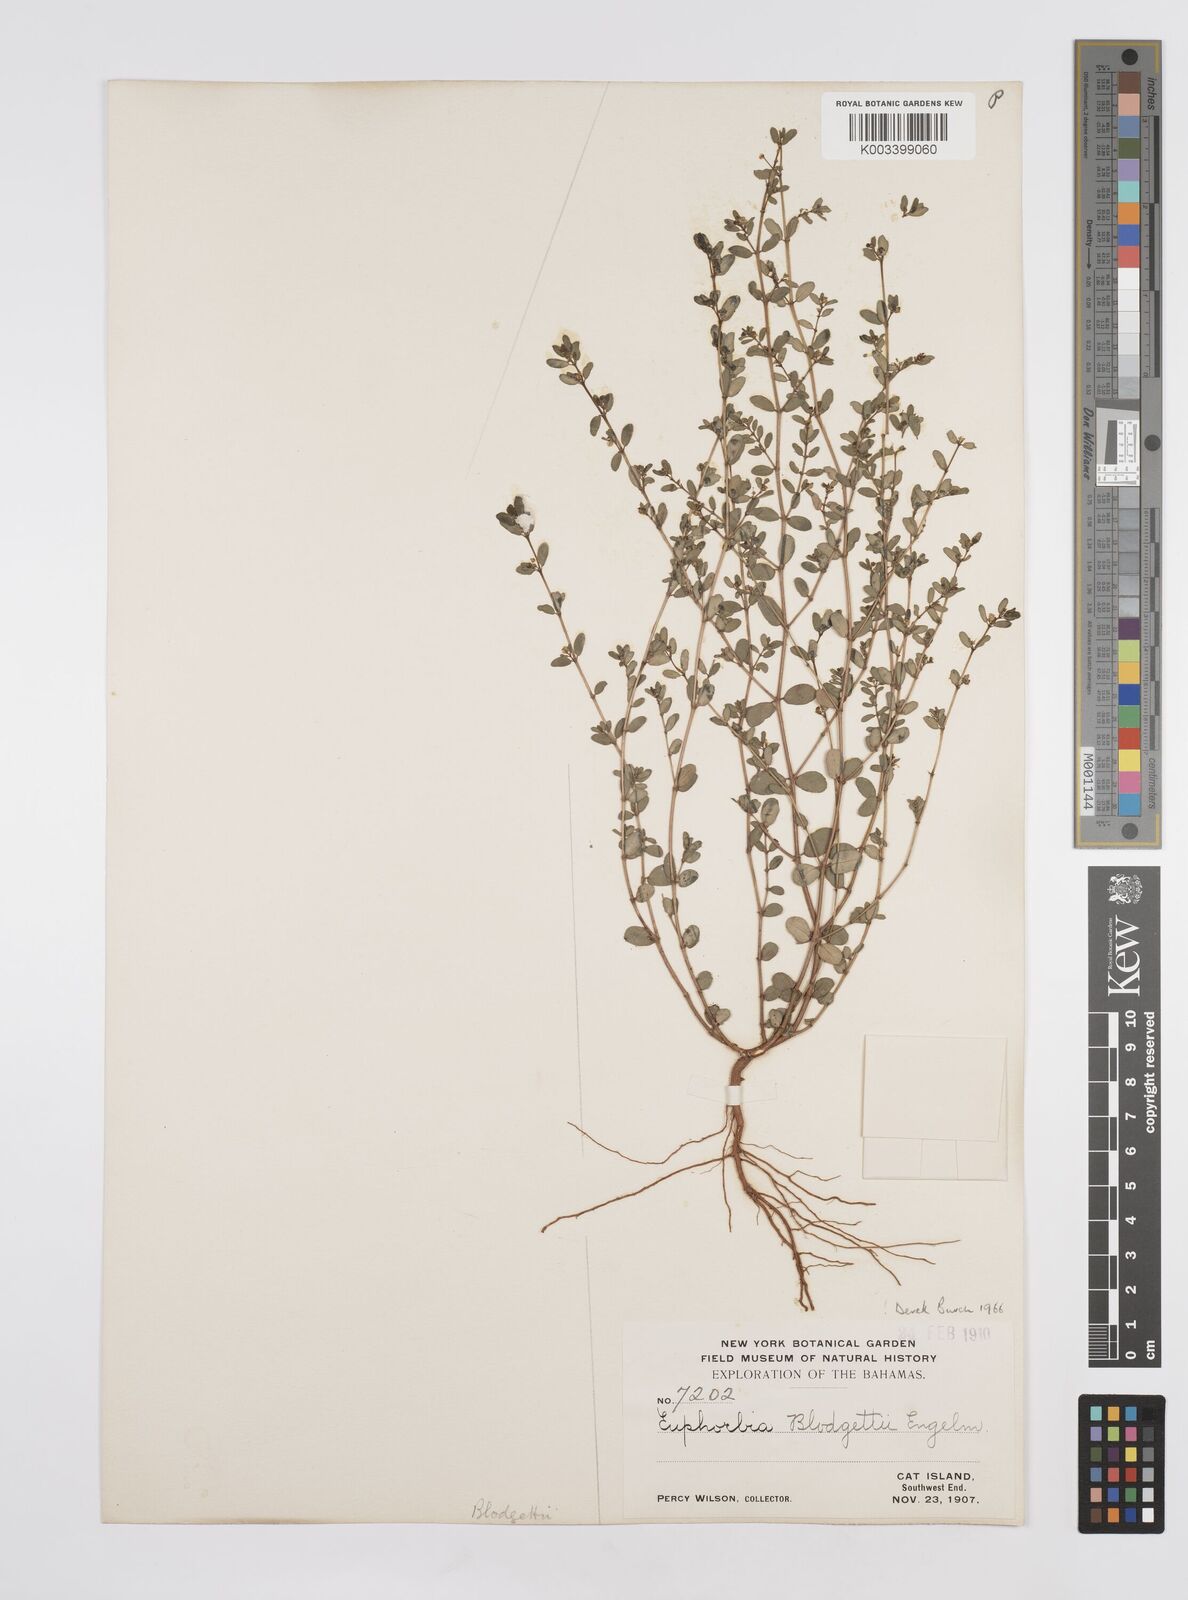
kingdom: Plantae
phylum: Tracheophyta
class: Magnoliopsida
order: Malpighiales
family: Euphorbiaceae
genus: Euphorbia
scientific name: Euphorbia blodgettii
